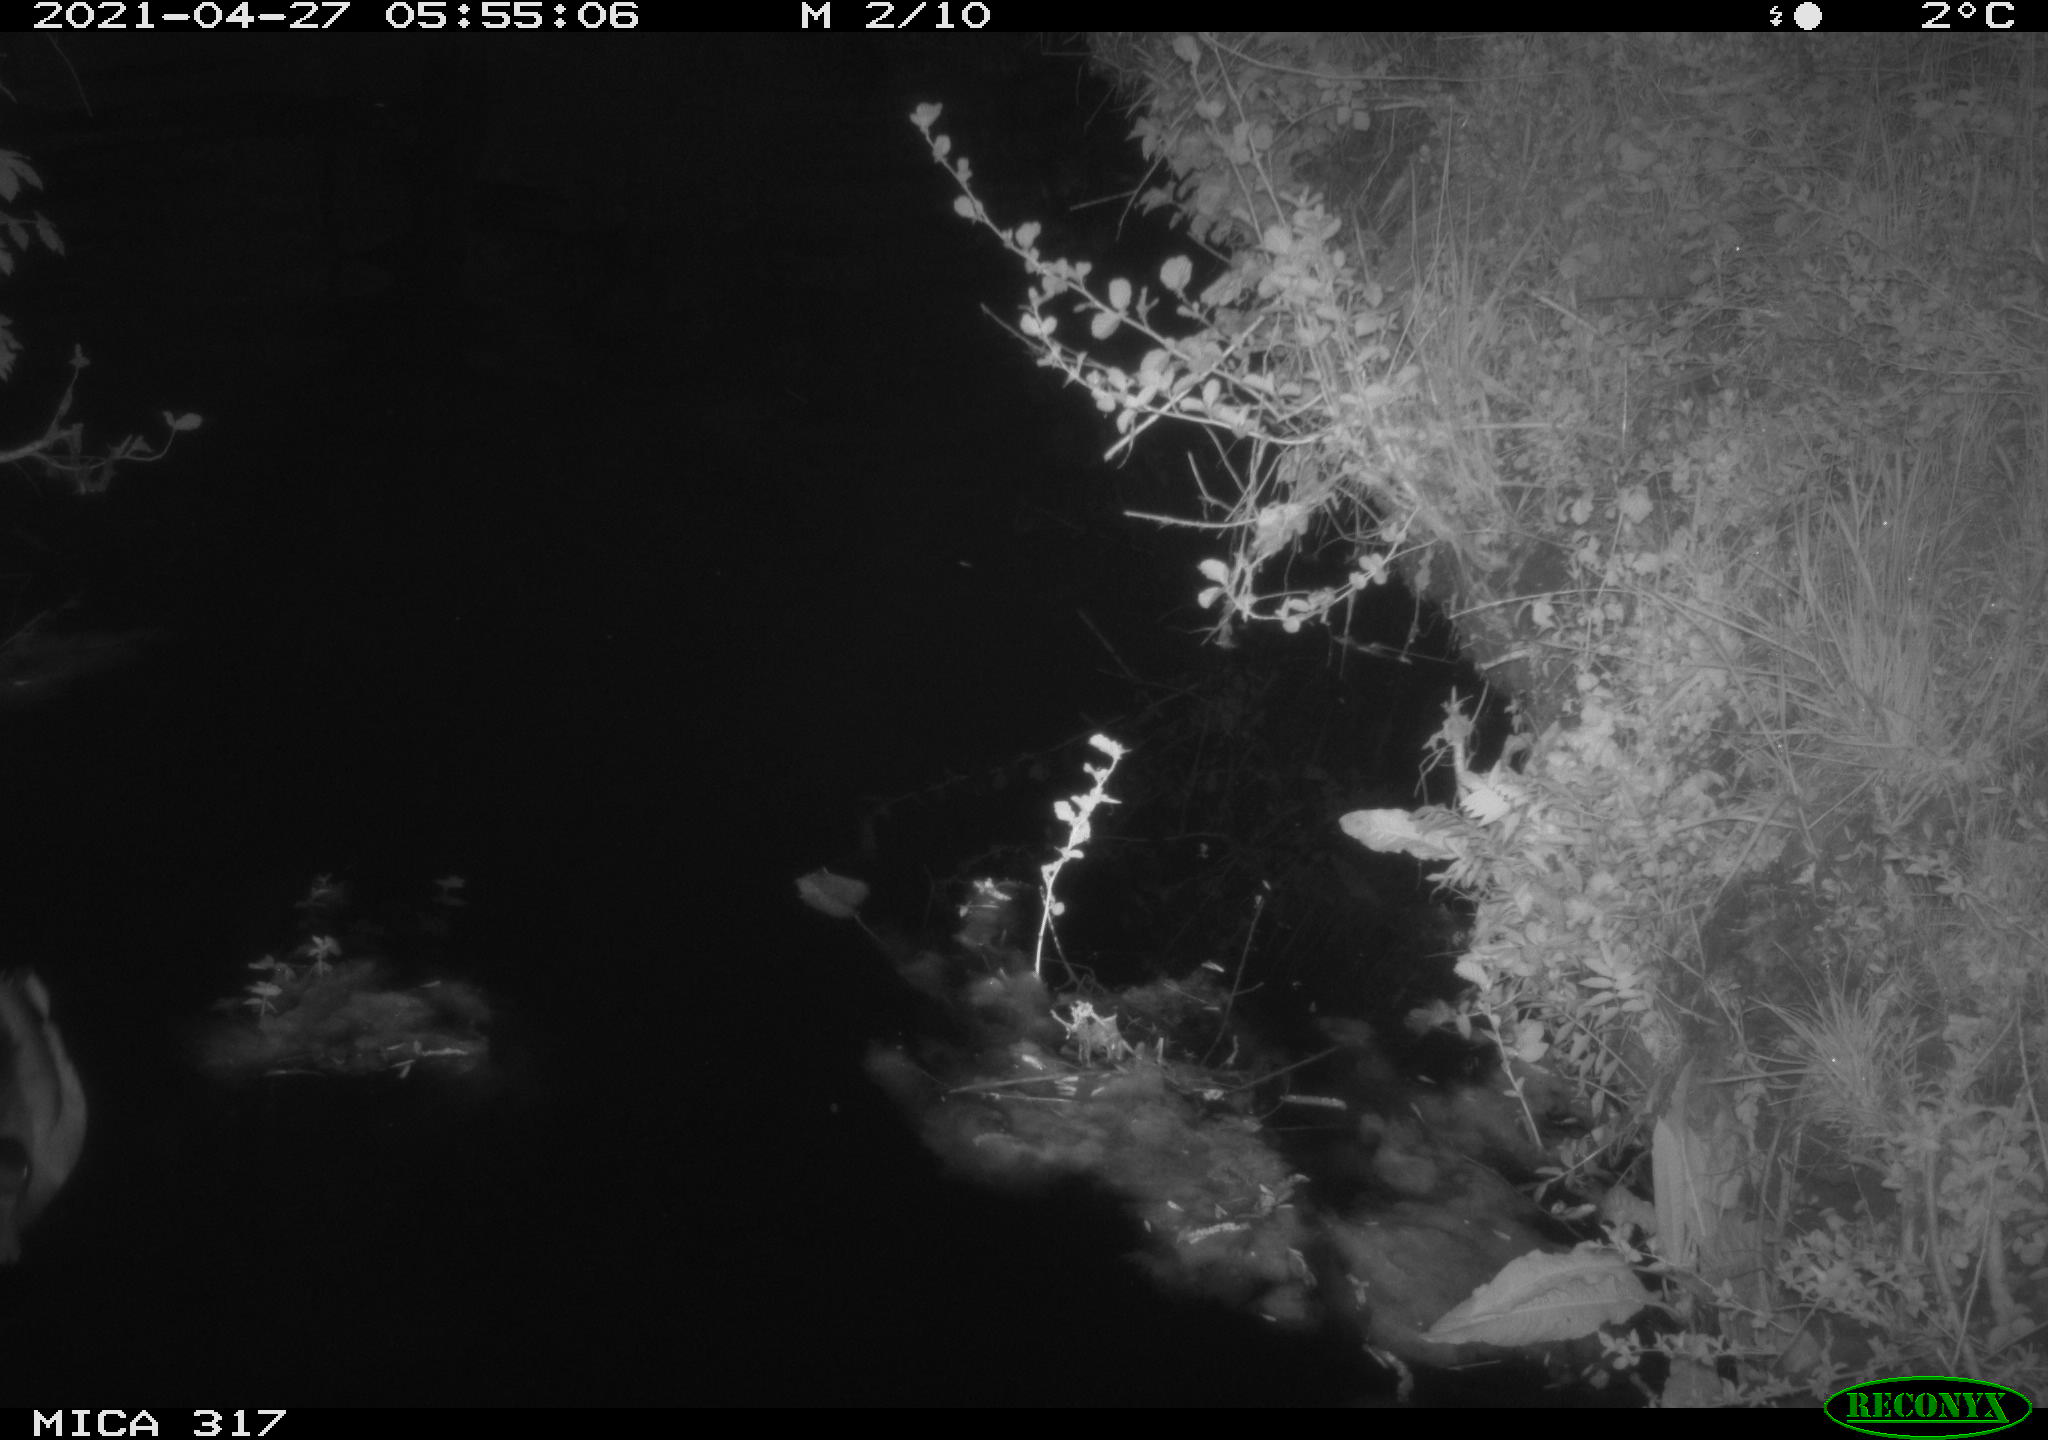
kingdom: Animalia
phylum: Chordata
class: Aves
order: Anseriformes
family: Anatidae
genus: Anas
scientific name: Anas
